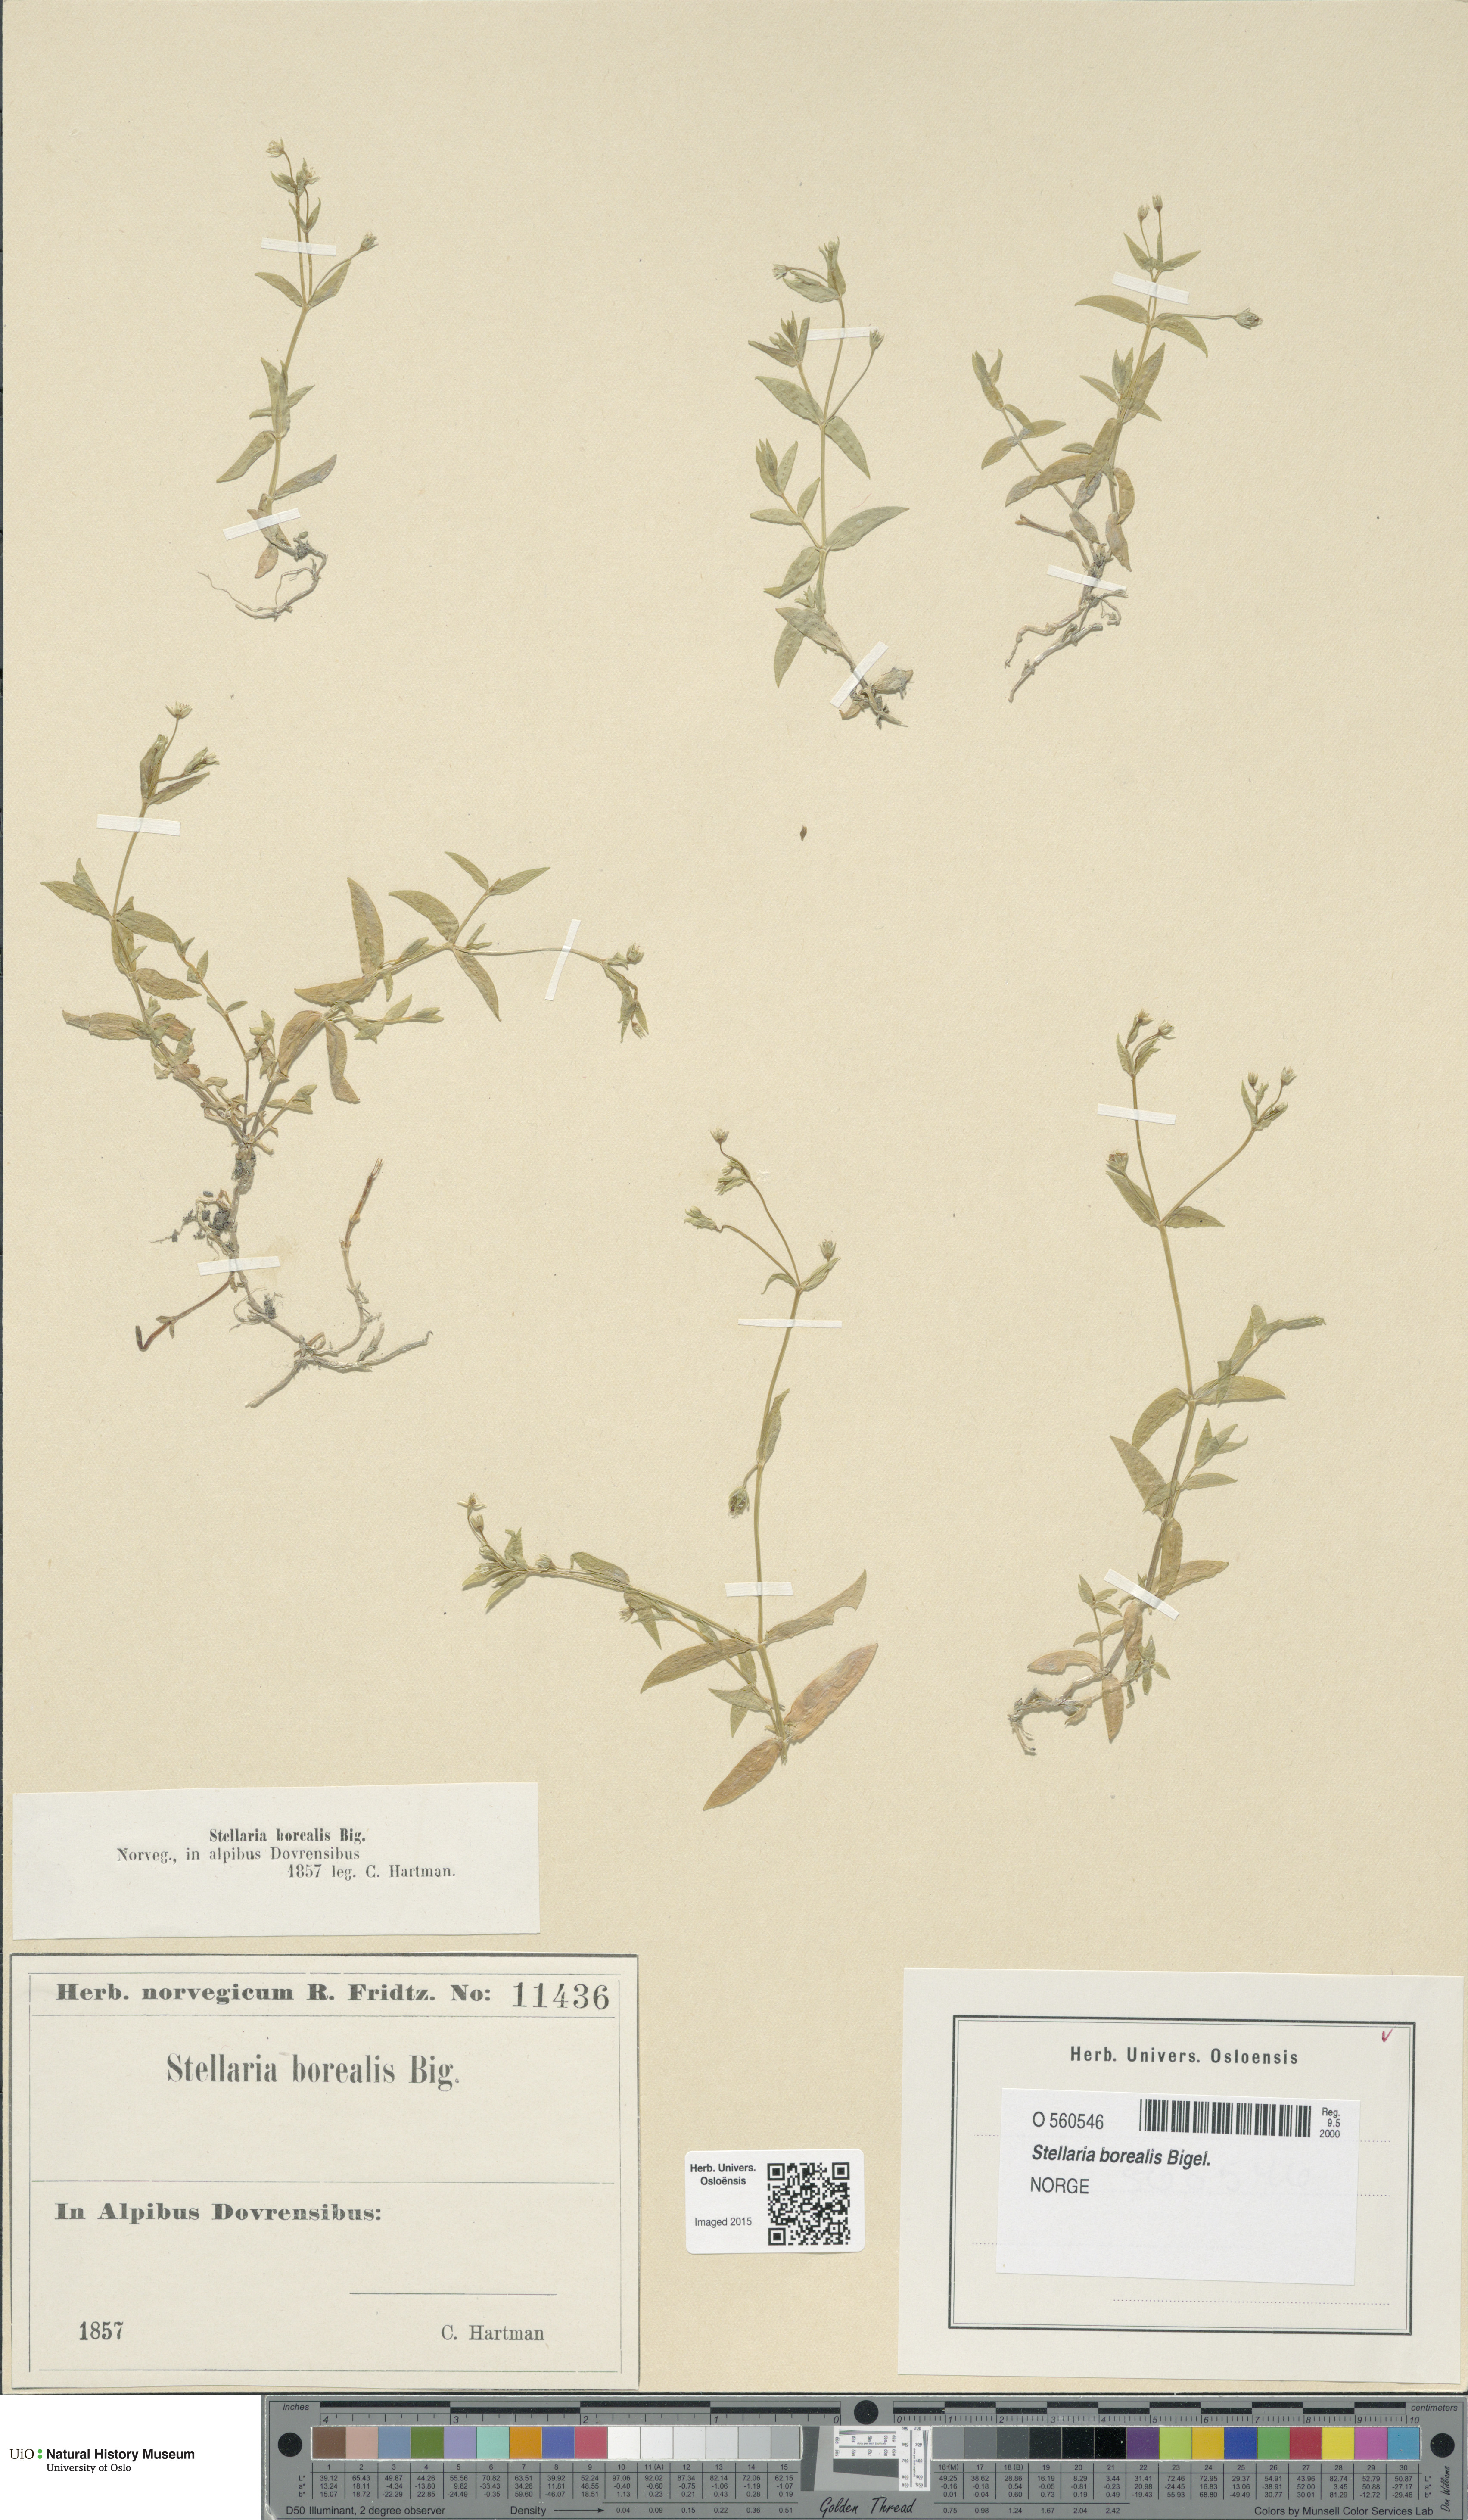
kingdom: Plantae
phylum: Tracheophyta
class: Magnoliopsida
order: Caryophyllales
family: Caryophyllaceae
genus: Stellaria
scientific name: Stellaria borealis
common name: Boreal starwort
